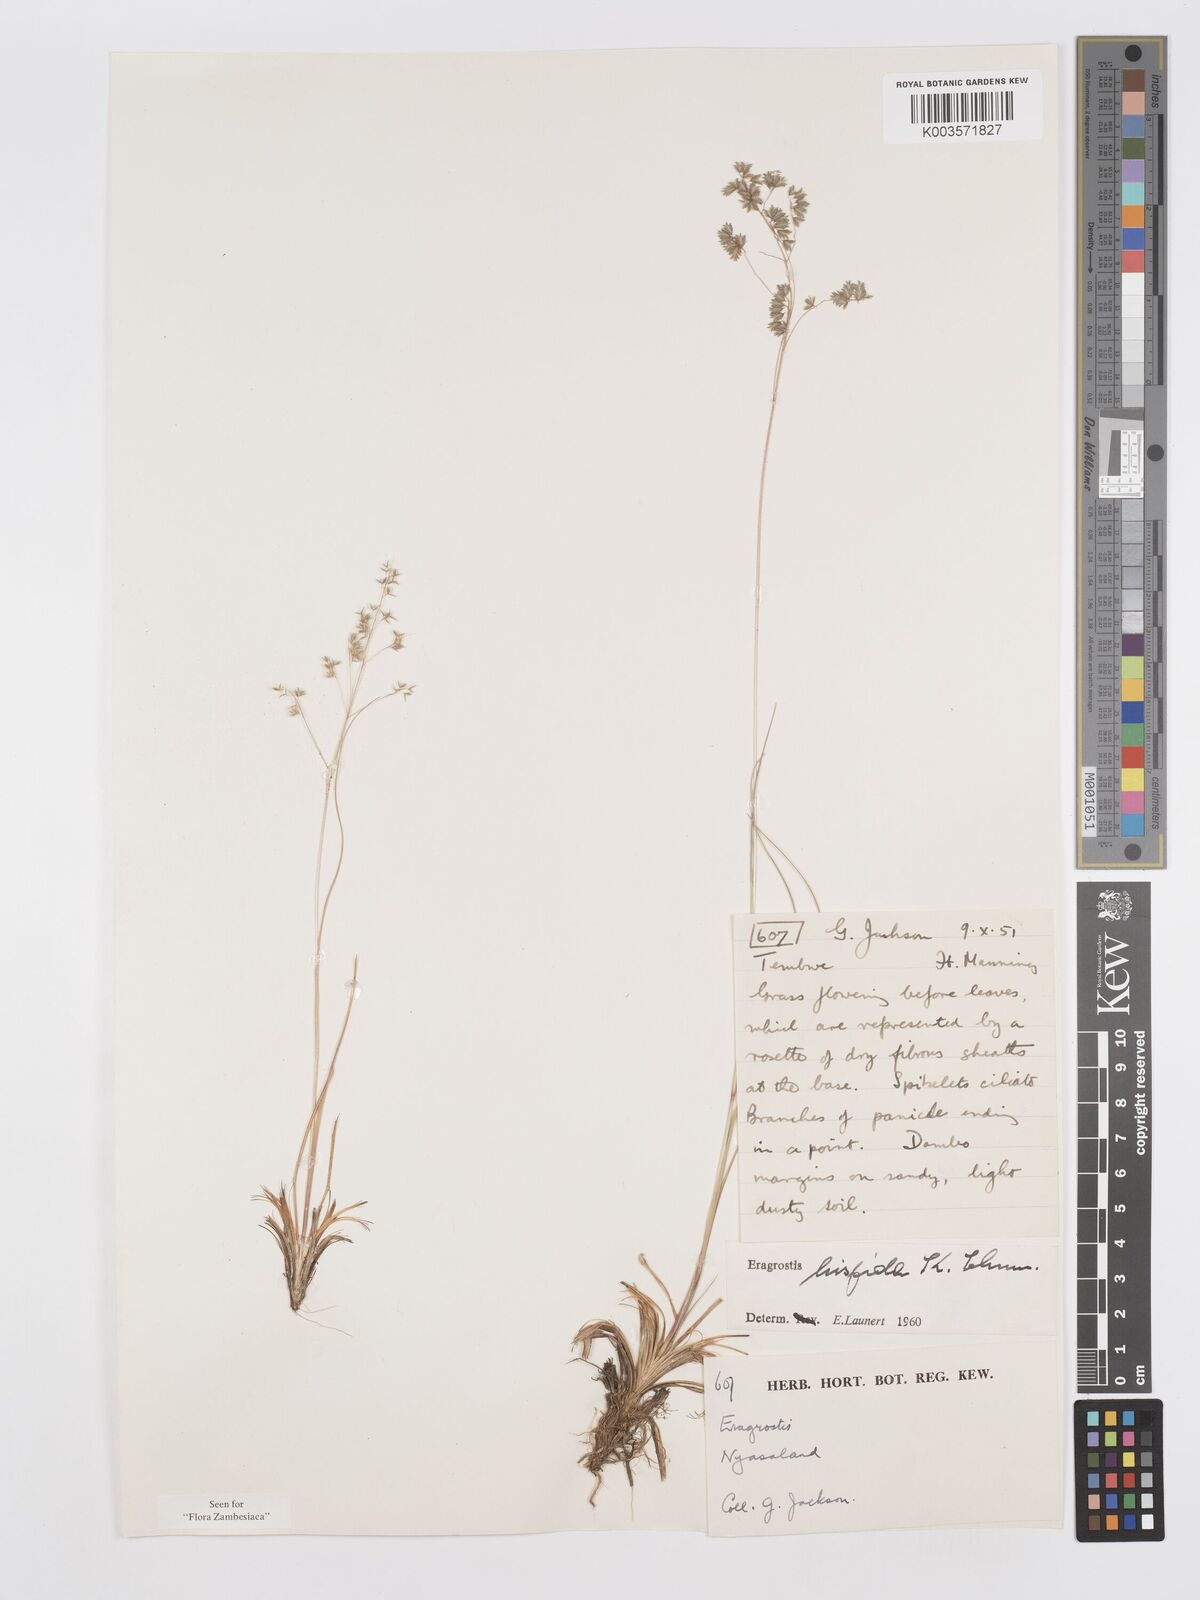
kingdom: Plantae
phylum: Tracheophyta
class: Liliopsida
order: Poales
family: Poaceae
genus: Eragrostis
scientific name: Eragrostis hispida
